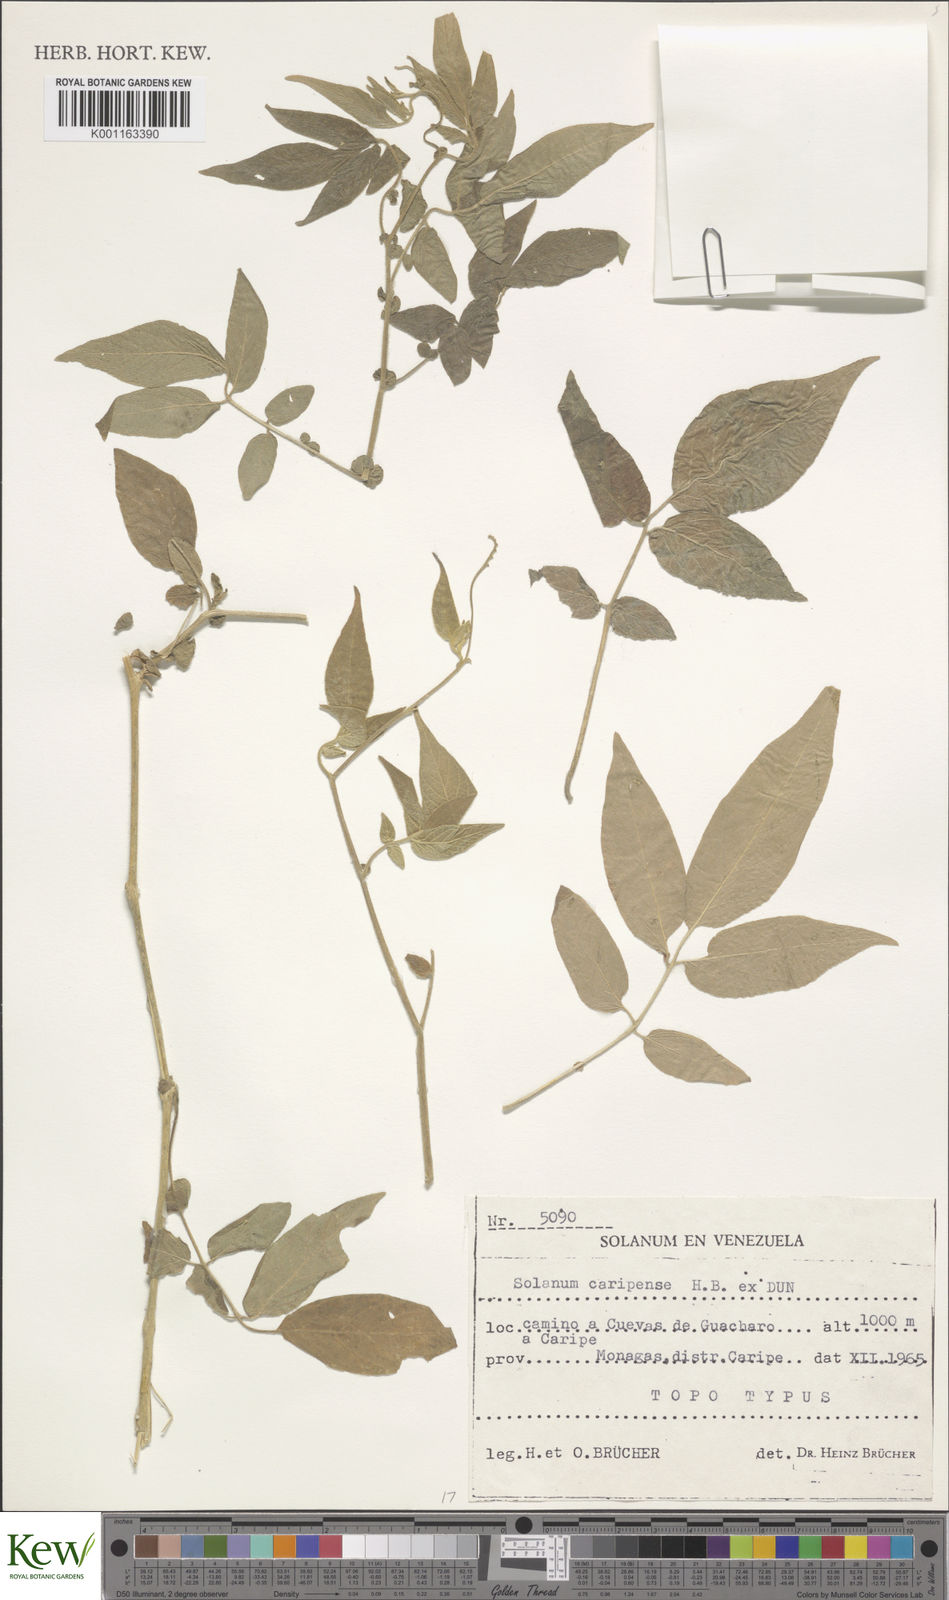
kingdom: Plantae
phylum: Tracheophyta
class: Magnoliopsida
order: Solanales
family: Solanaceae
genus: Solanum
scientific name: Solanum caripense
